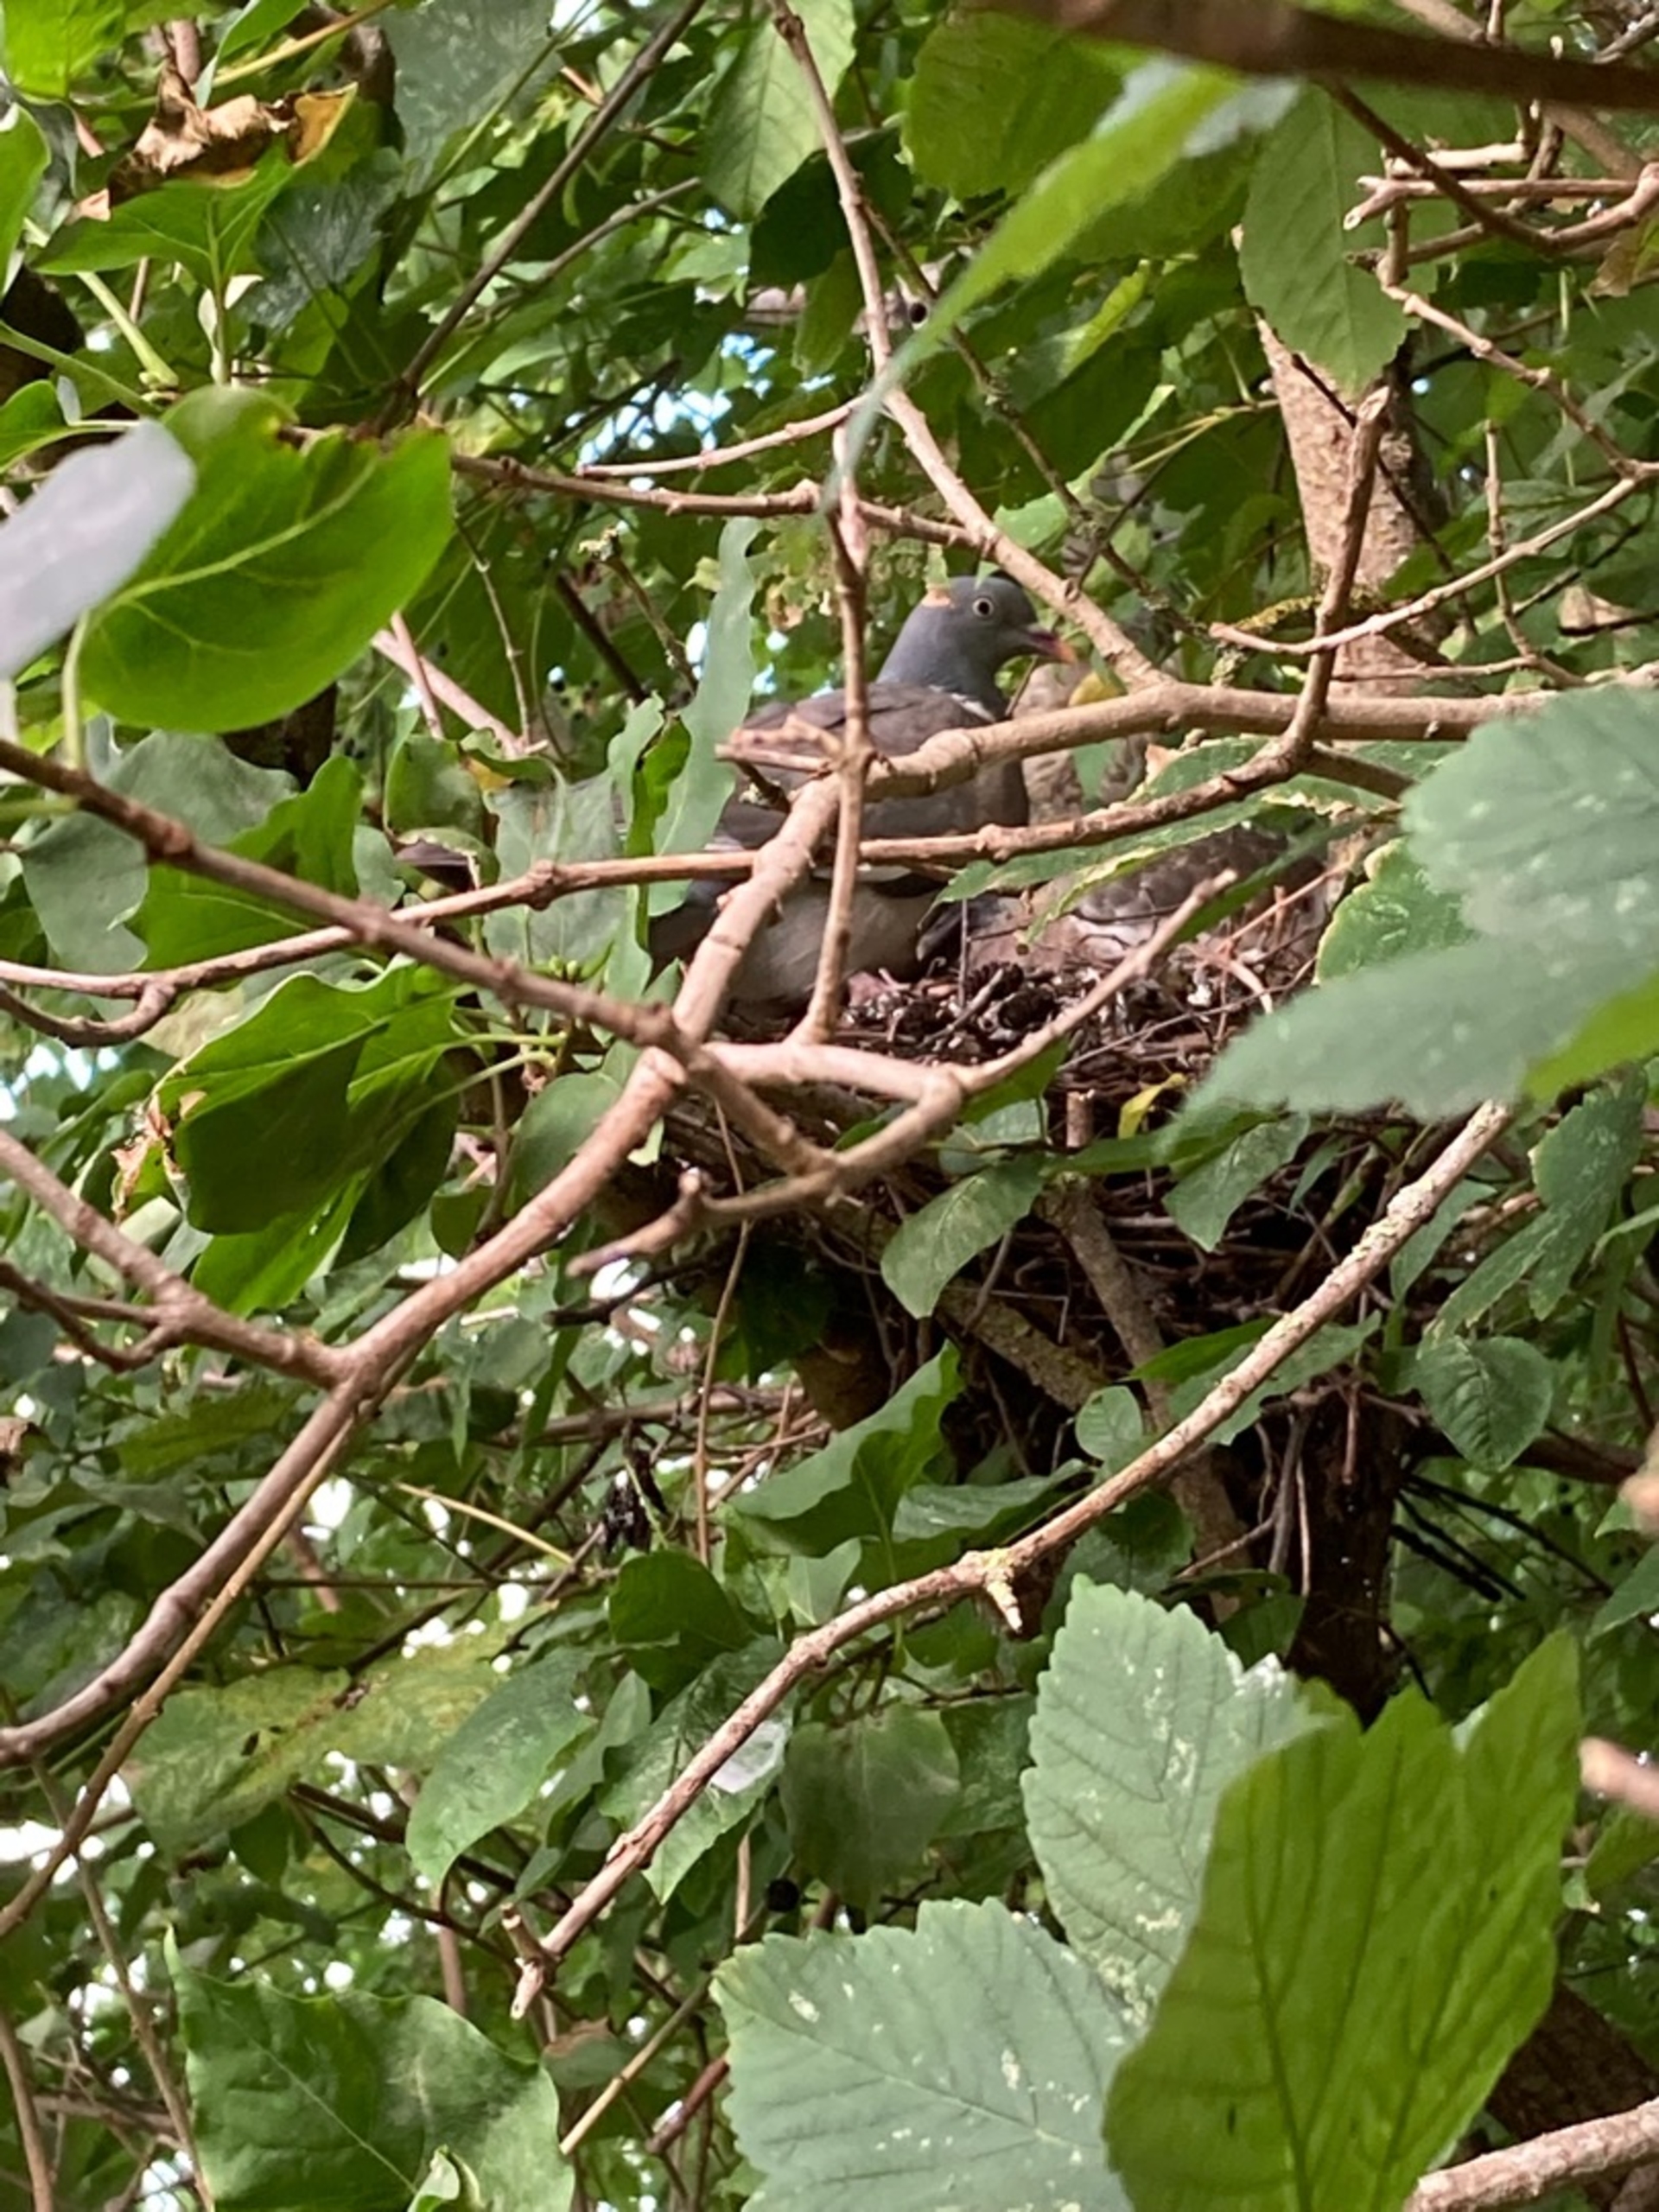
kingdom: Animalia
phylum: Chordata
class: Aves
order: Columbiformes
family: Columbidae
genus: Columba
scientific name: Columba palumbus
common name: Ringdue
